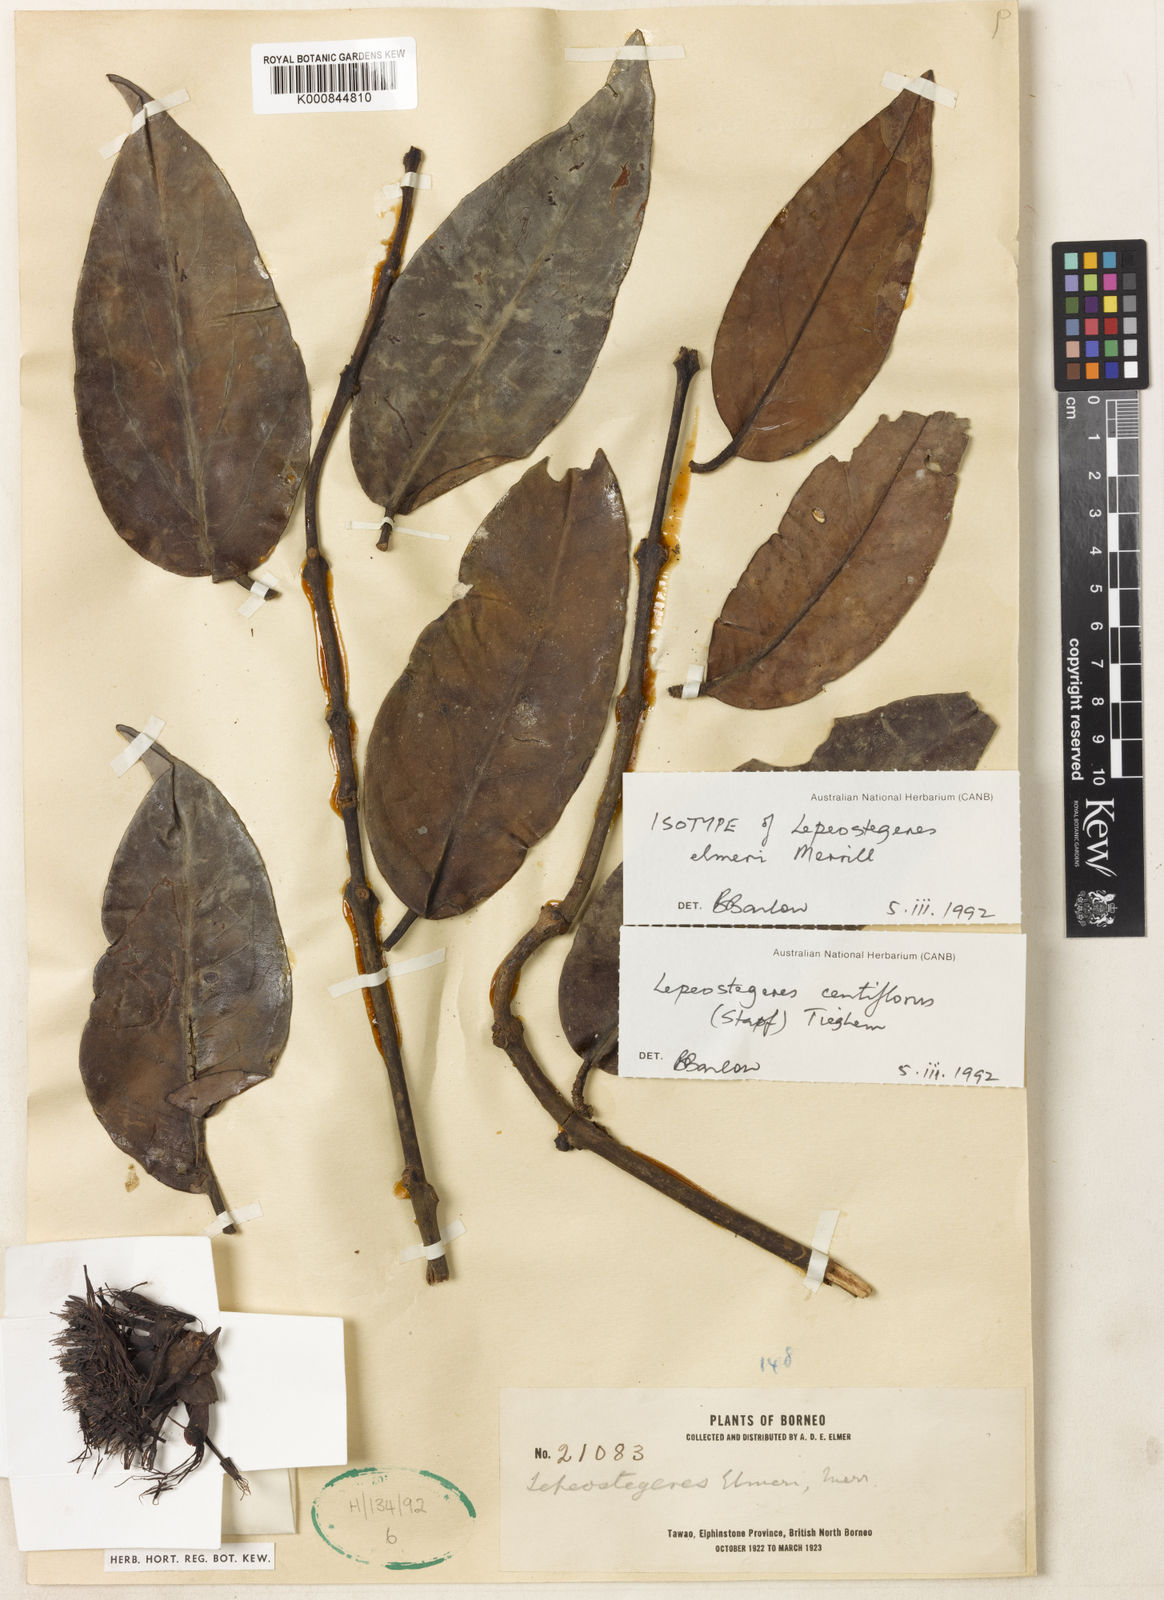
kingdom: Plantae
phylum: Tracheophyta
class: Magnoliopsida
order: Santalales
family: Loranthaceae
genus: Lepeostegeres
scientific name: Lepeostegeres centiflorus
